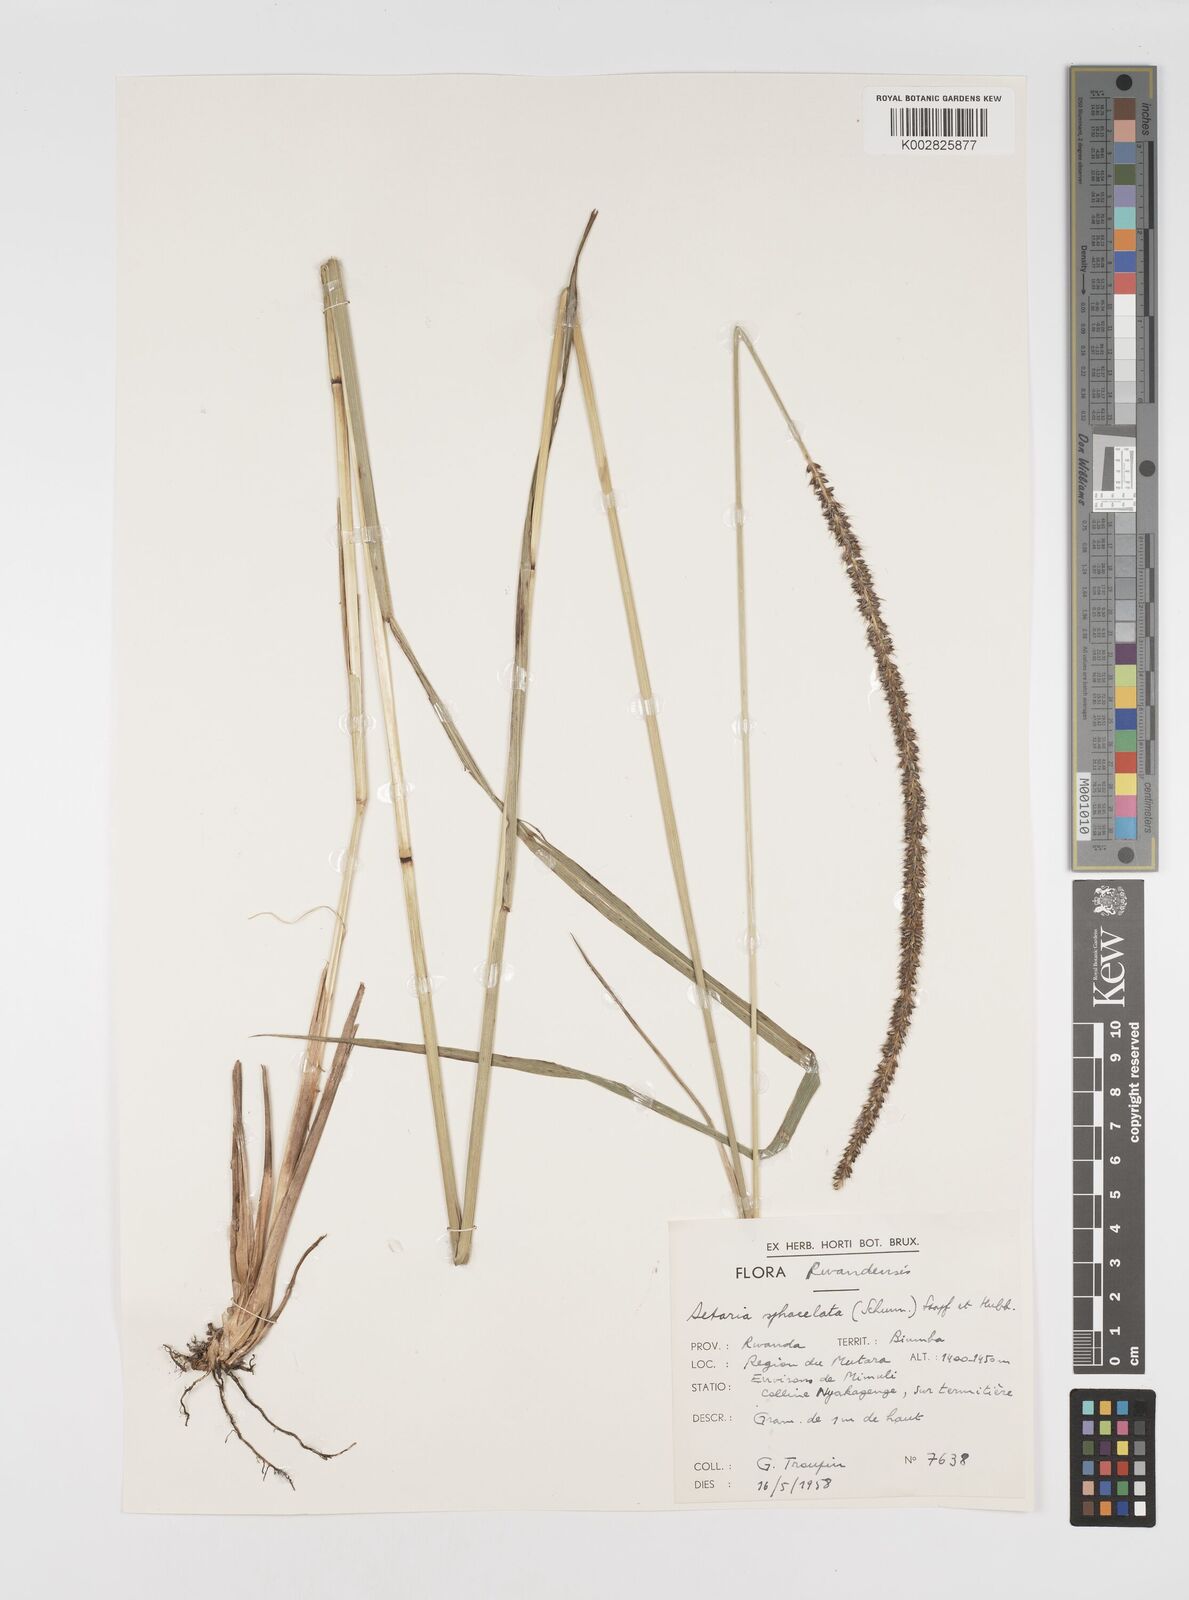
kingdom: Plantae
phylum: Tracheophyta
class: Liliopsida
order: Poales
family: Poaceae
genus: Setaria
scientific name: Setaria sphacelata
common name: African bristlegrass
